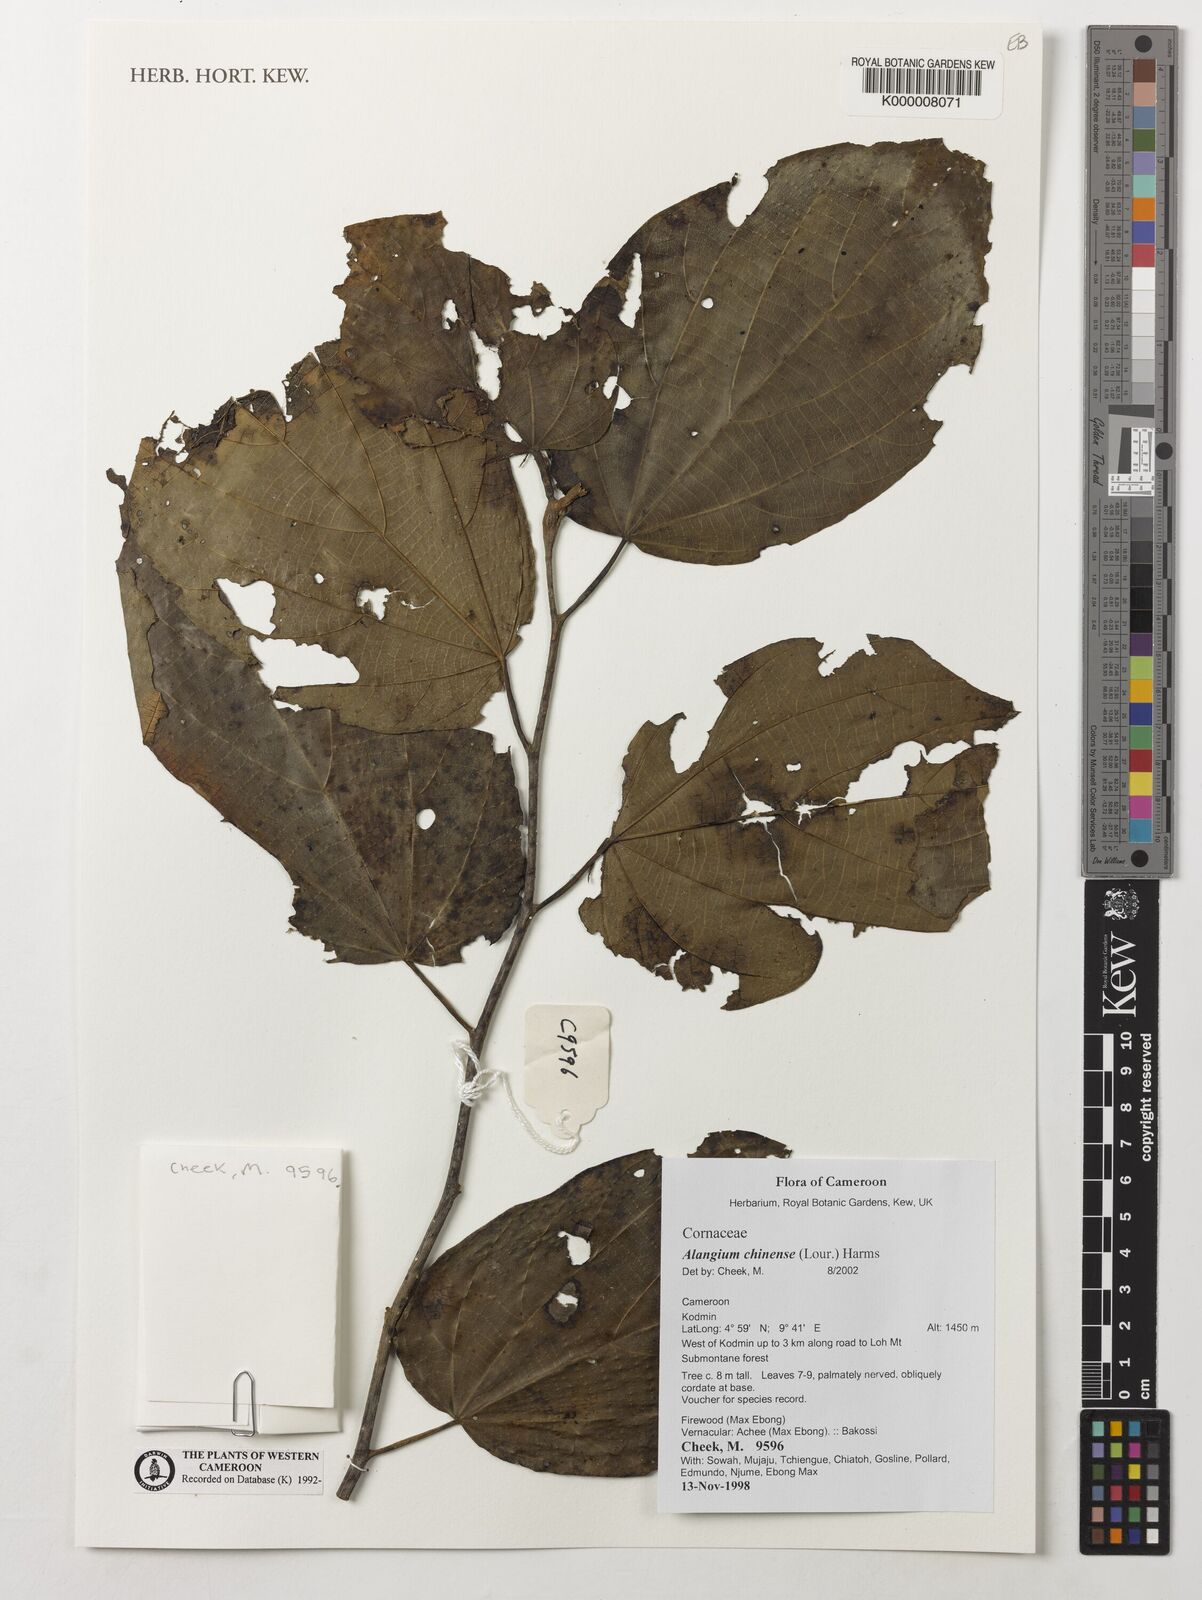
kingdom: Plantae
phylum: Tracheophyta
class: Magnoliopsida
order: Cornales
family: Cornaceae
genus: Alangium
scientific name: Alangium chinense
